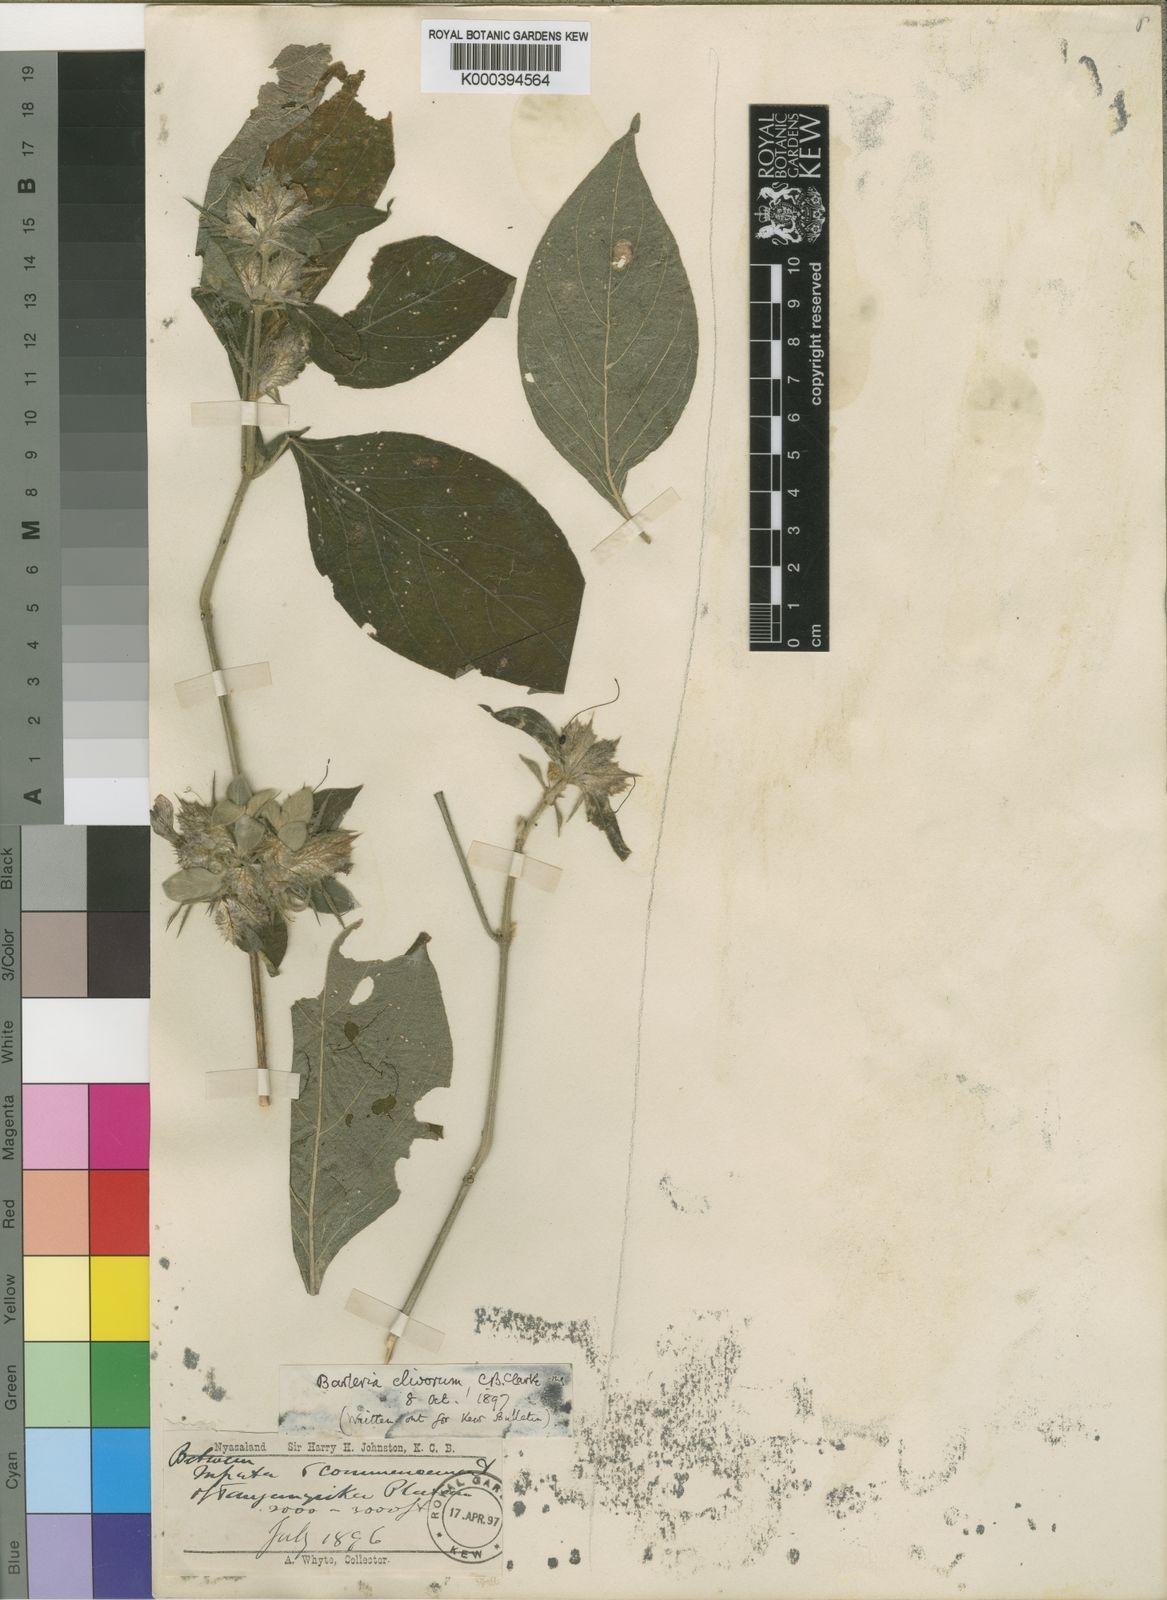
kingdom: Plantae
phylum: Tracheophyta
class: Magnoliopsida
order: Lamiales
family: Acanthaceae
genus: Barleria
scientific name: Barleria spinulosa
